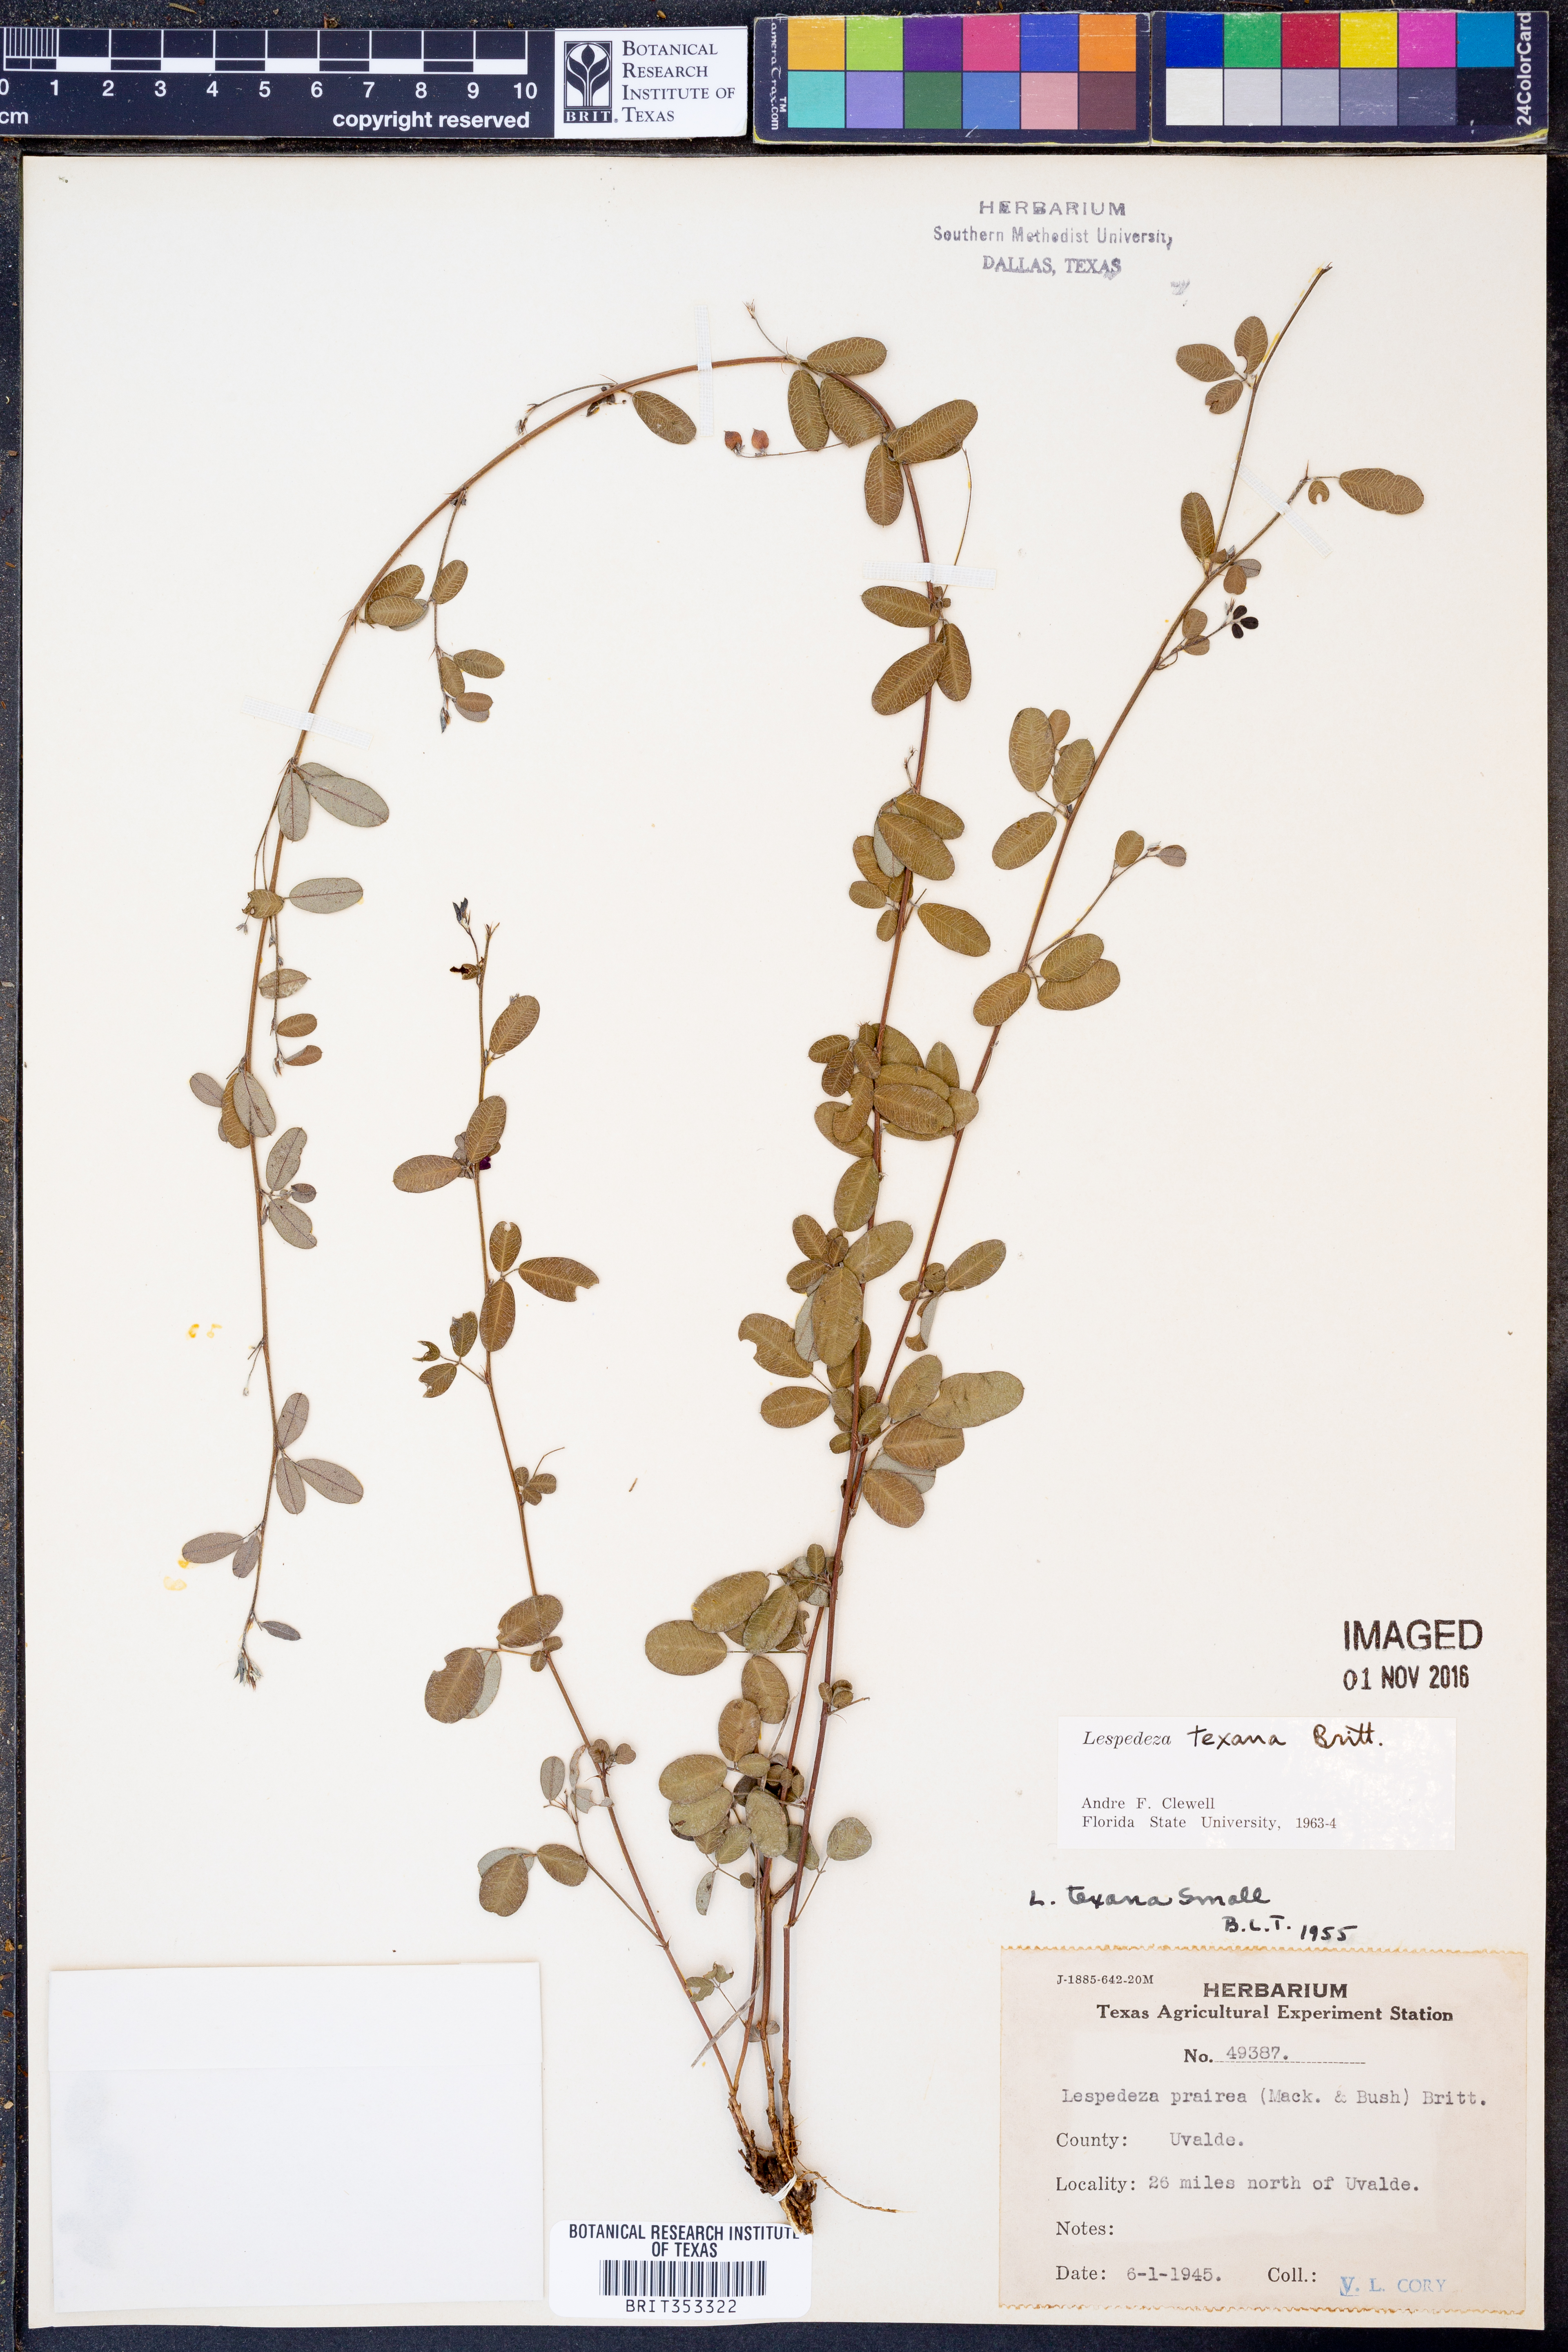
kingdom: Plantae
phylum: Tracheophyta
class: Magnoliopsida
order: Fabales
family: Fabaceae
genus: Lespedeza
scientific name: Lespedeza texana
